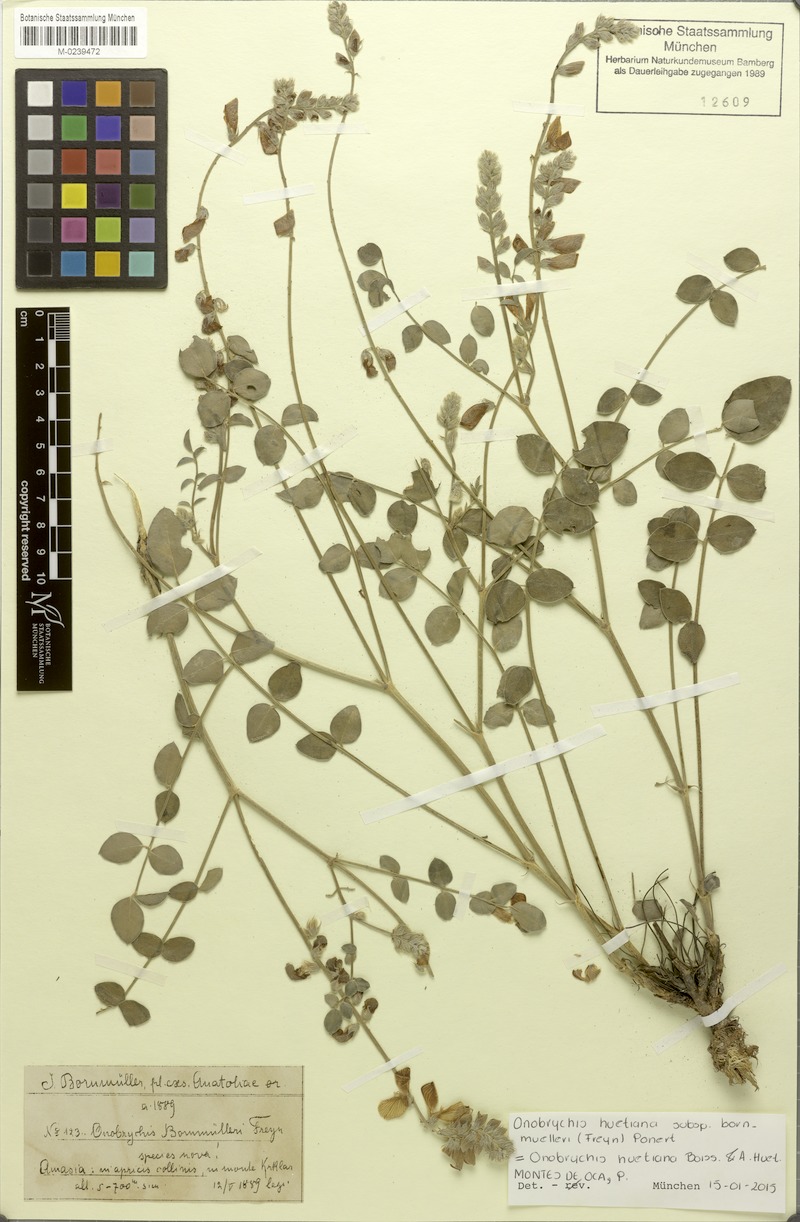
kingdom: Plantae
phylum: Tracheophyta
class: Magnoliopsida
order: Fabales
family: Fabaceae
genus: Onobrychis
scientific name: Onobrychis bornmuelleri
